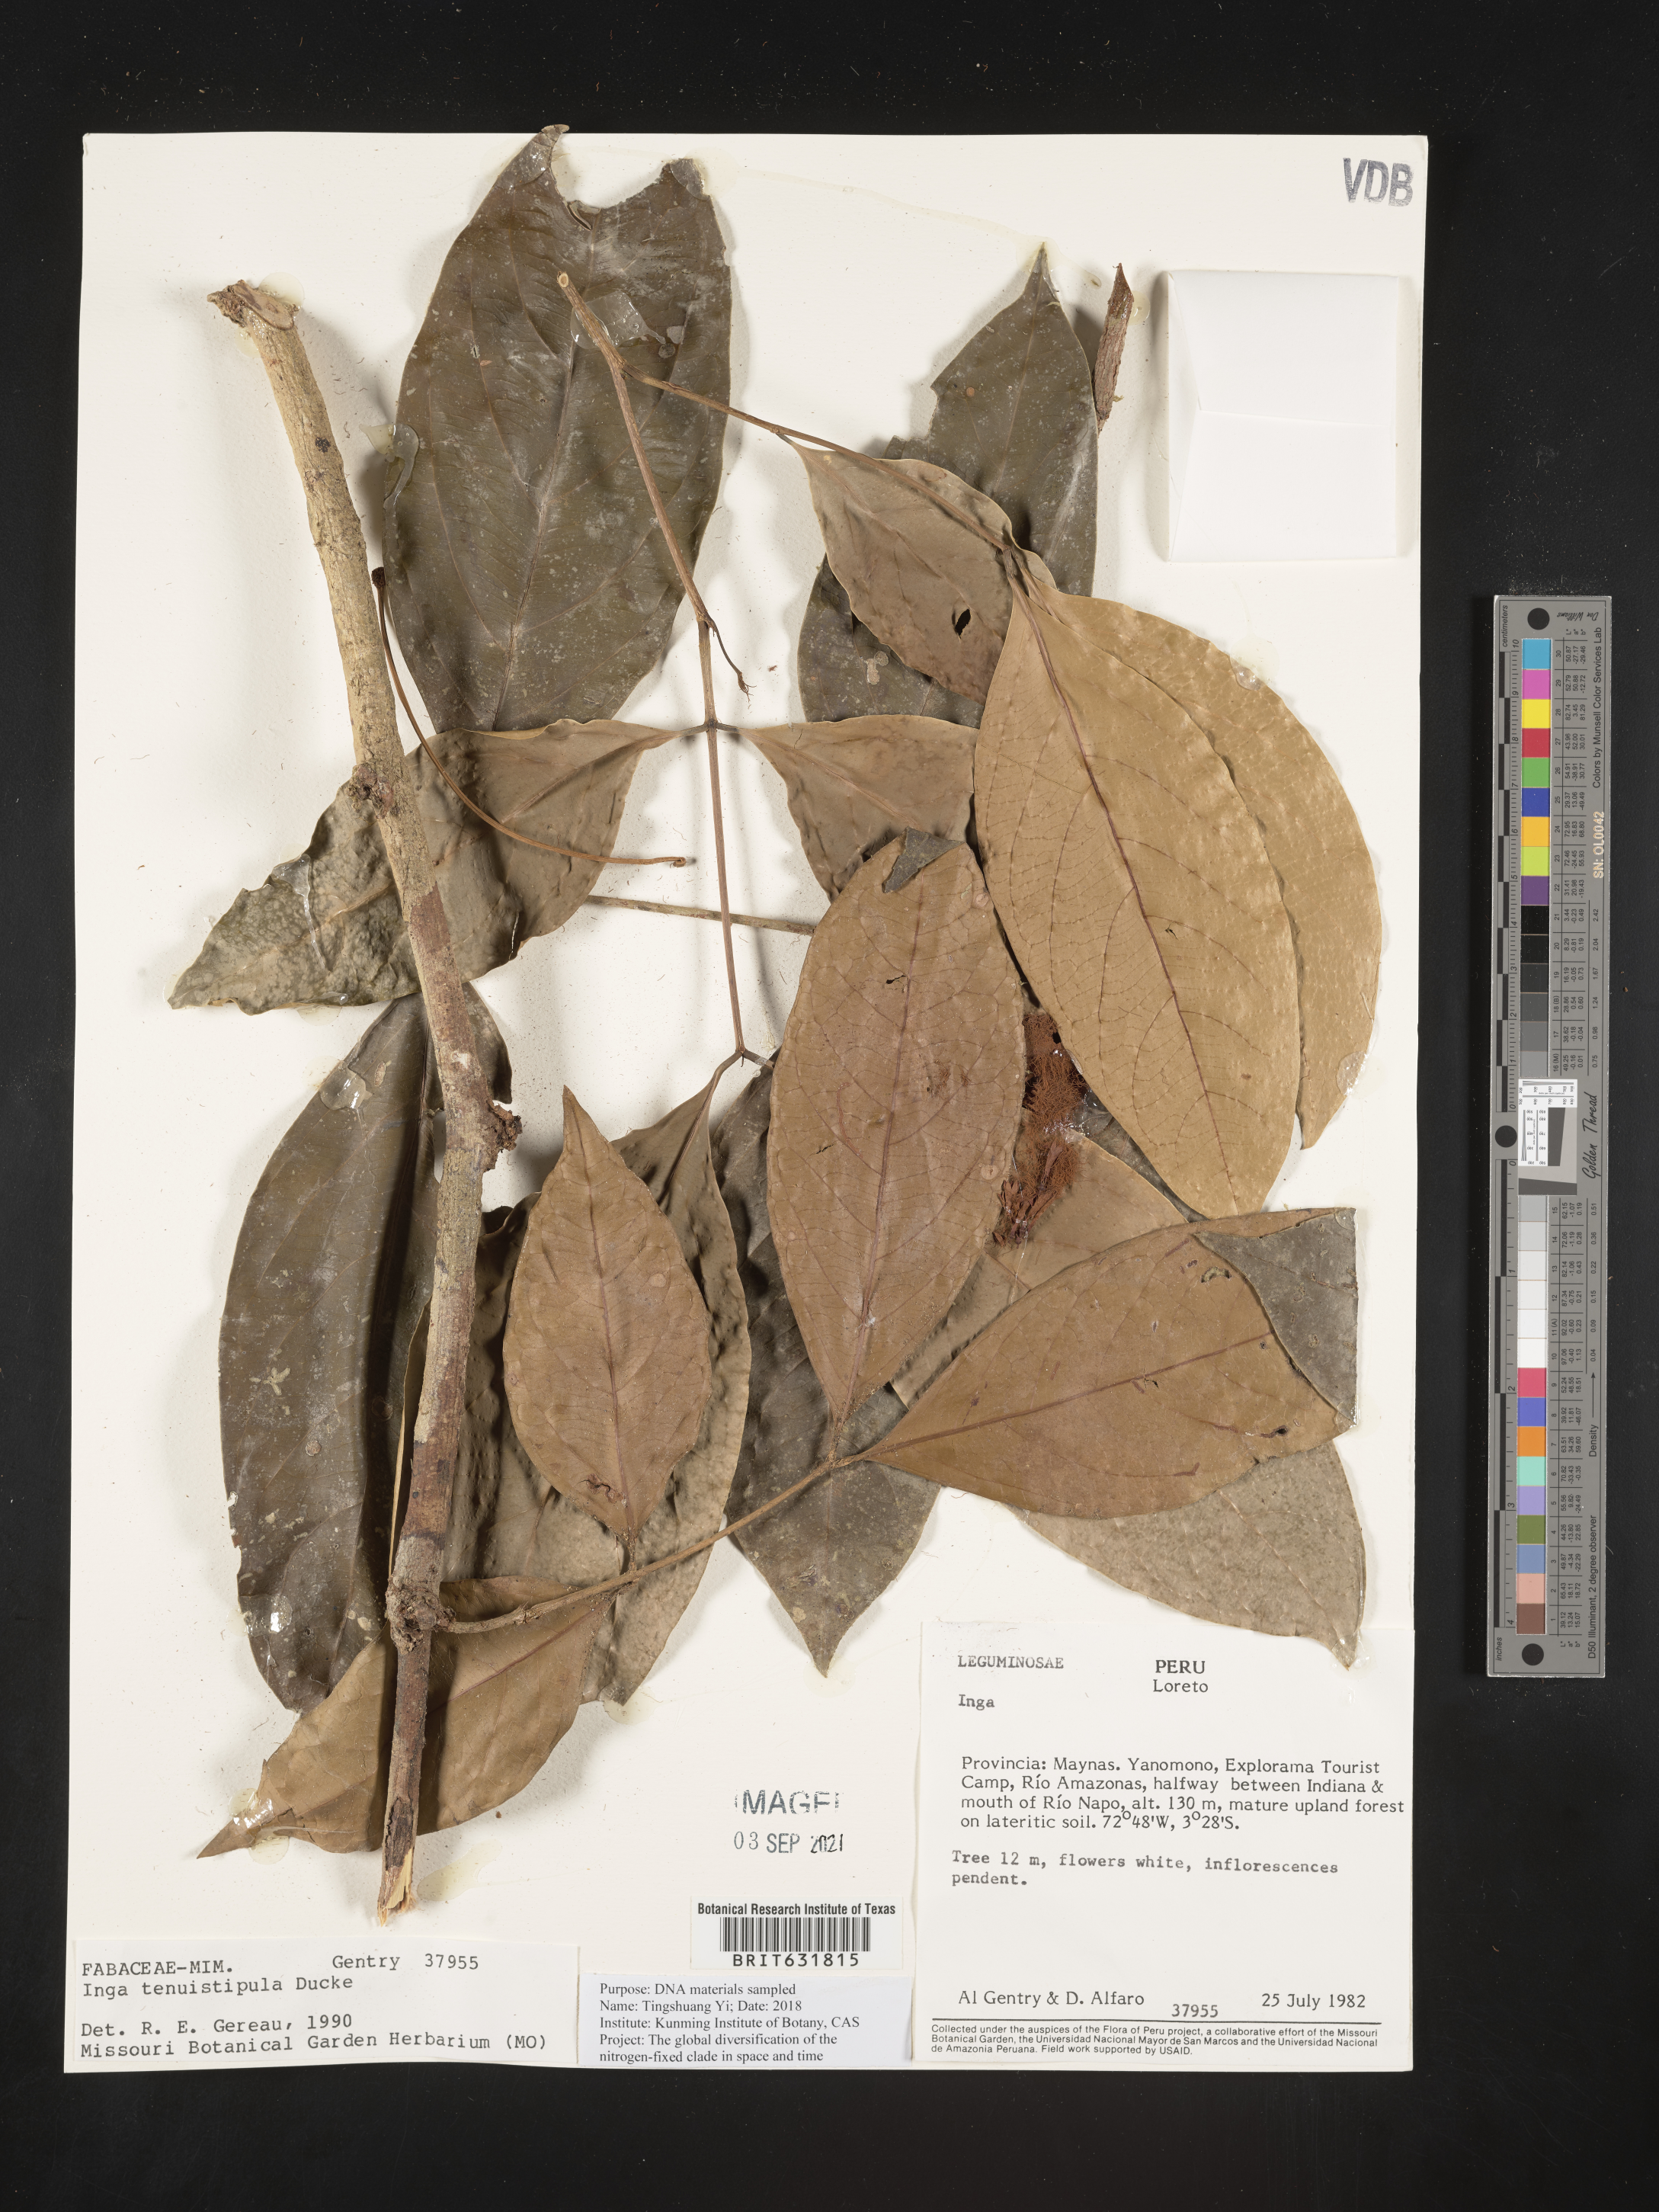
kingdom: Plantae
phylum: Tracheophyta
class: Magnoliopsida
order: Fabales
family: Fabaceae
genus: Inga
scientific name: Inga
